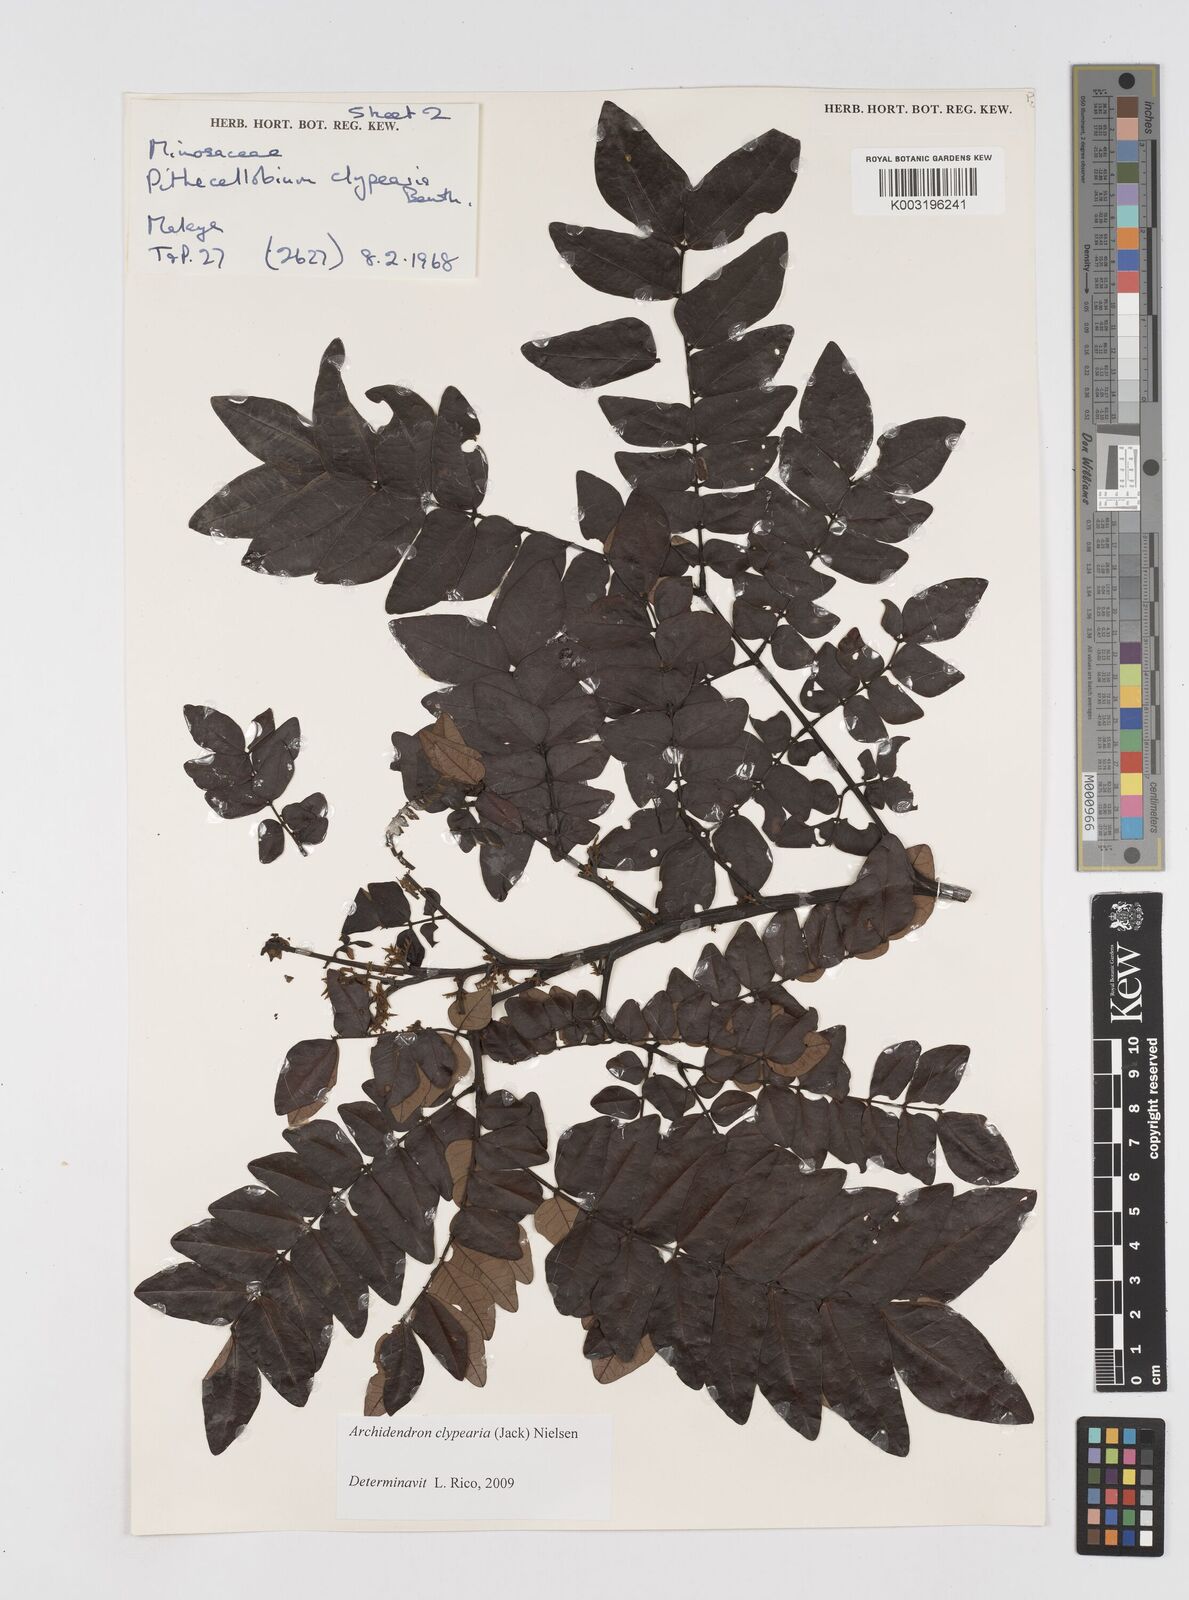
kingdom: Plantae
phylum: Tracheophyta
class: Magnoliopsida
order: Fabales
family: Fabaceae
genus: Archidendron
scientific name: Archidendron clypearia
